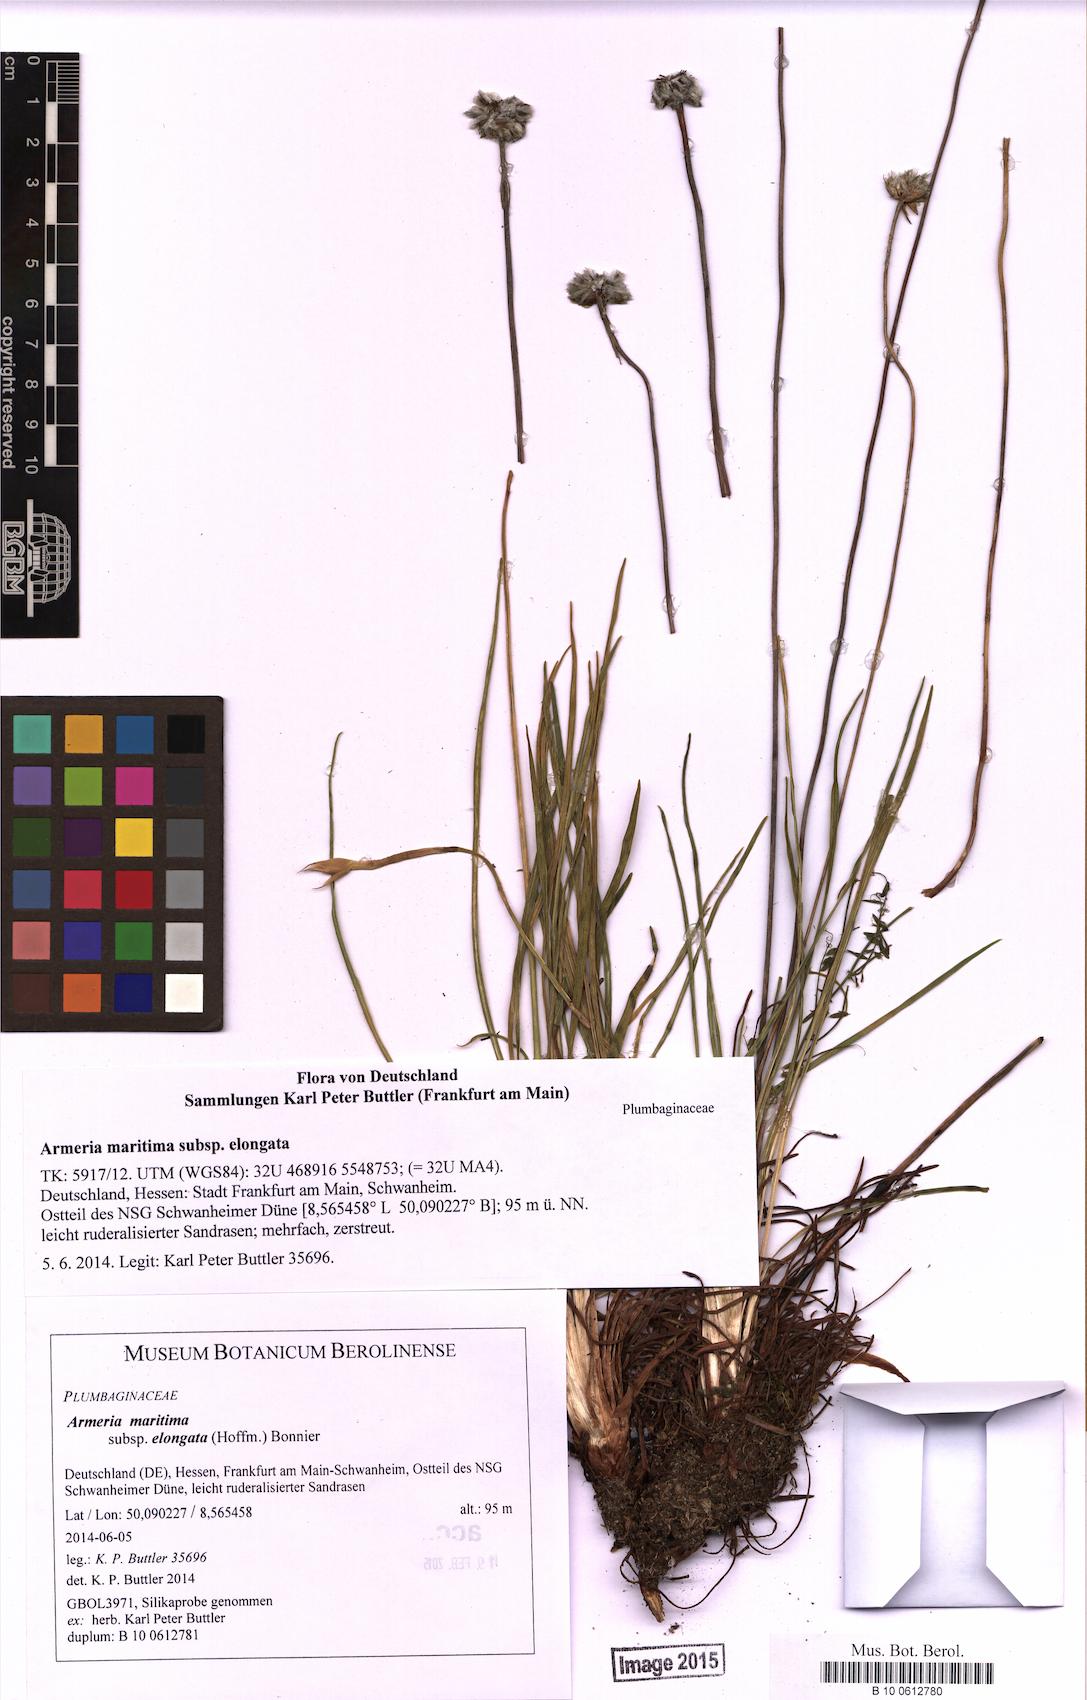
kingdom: Plantae
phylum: Tracheophyta
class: Magnoliopsida
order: Caryophyllales
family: Plumbaginaceae
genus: Armeria
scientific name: Armeria maritima
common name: Thrift
